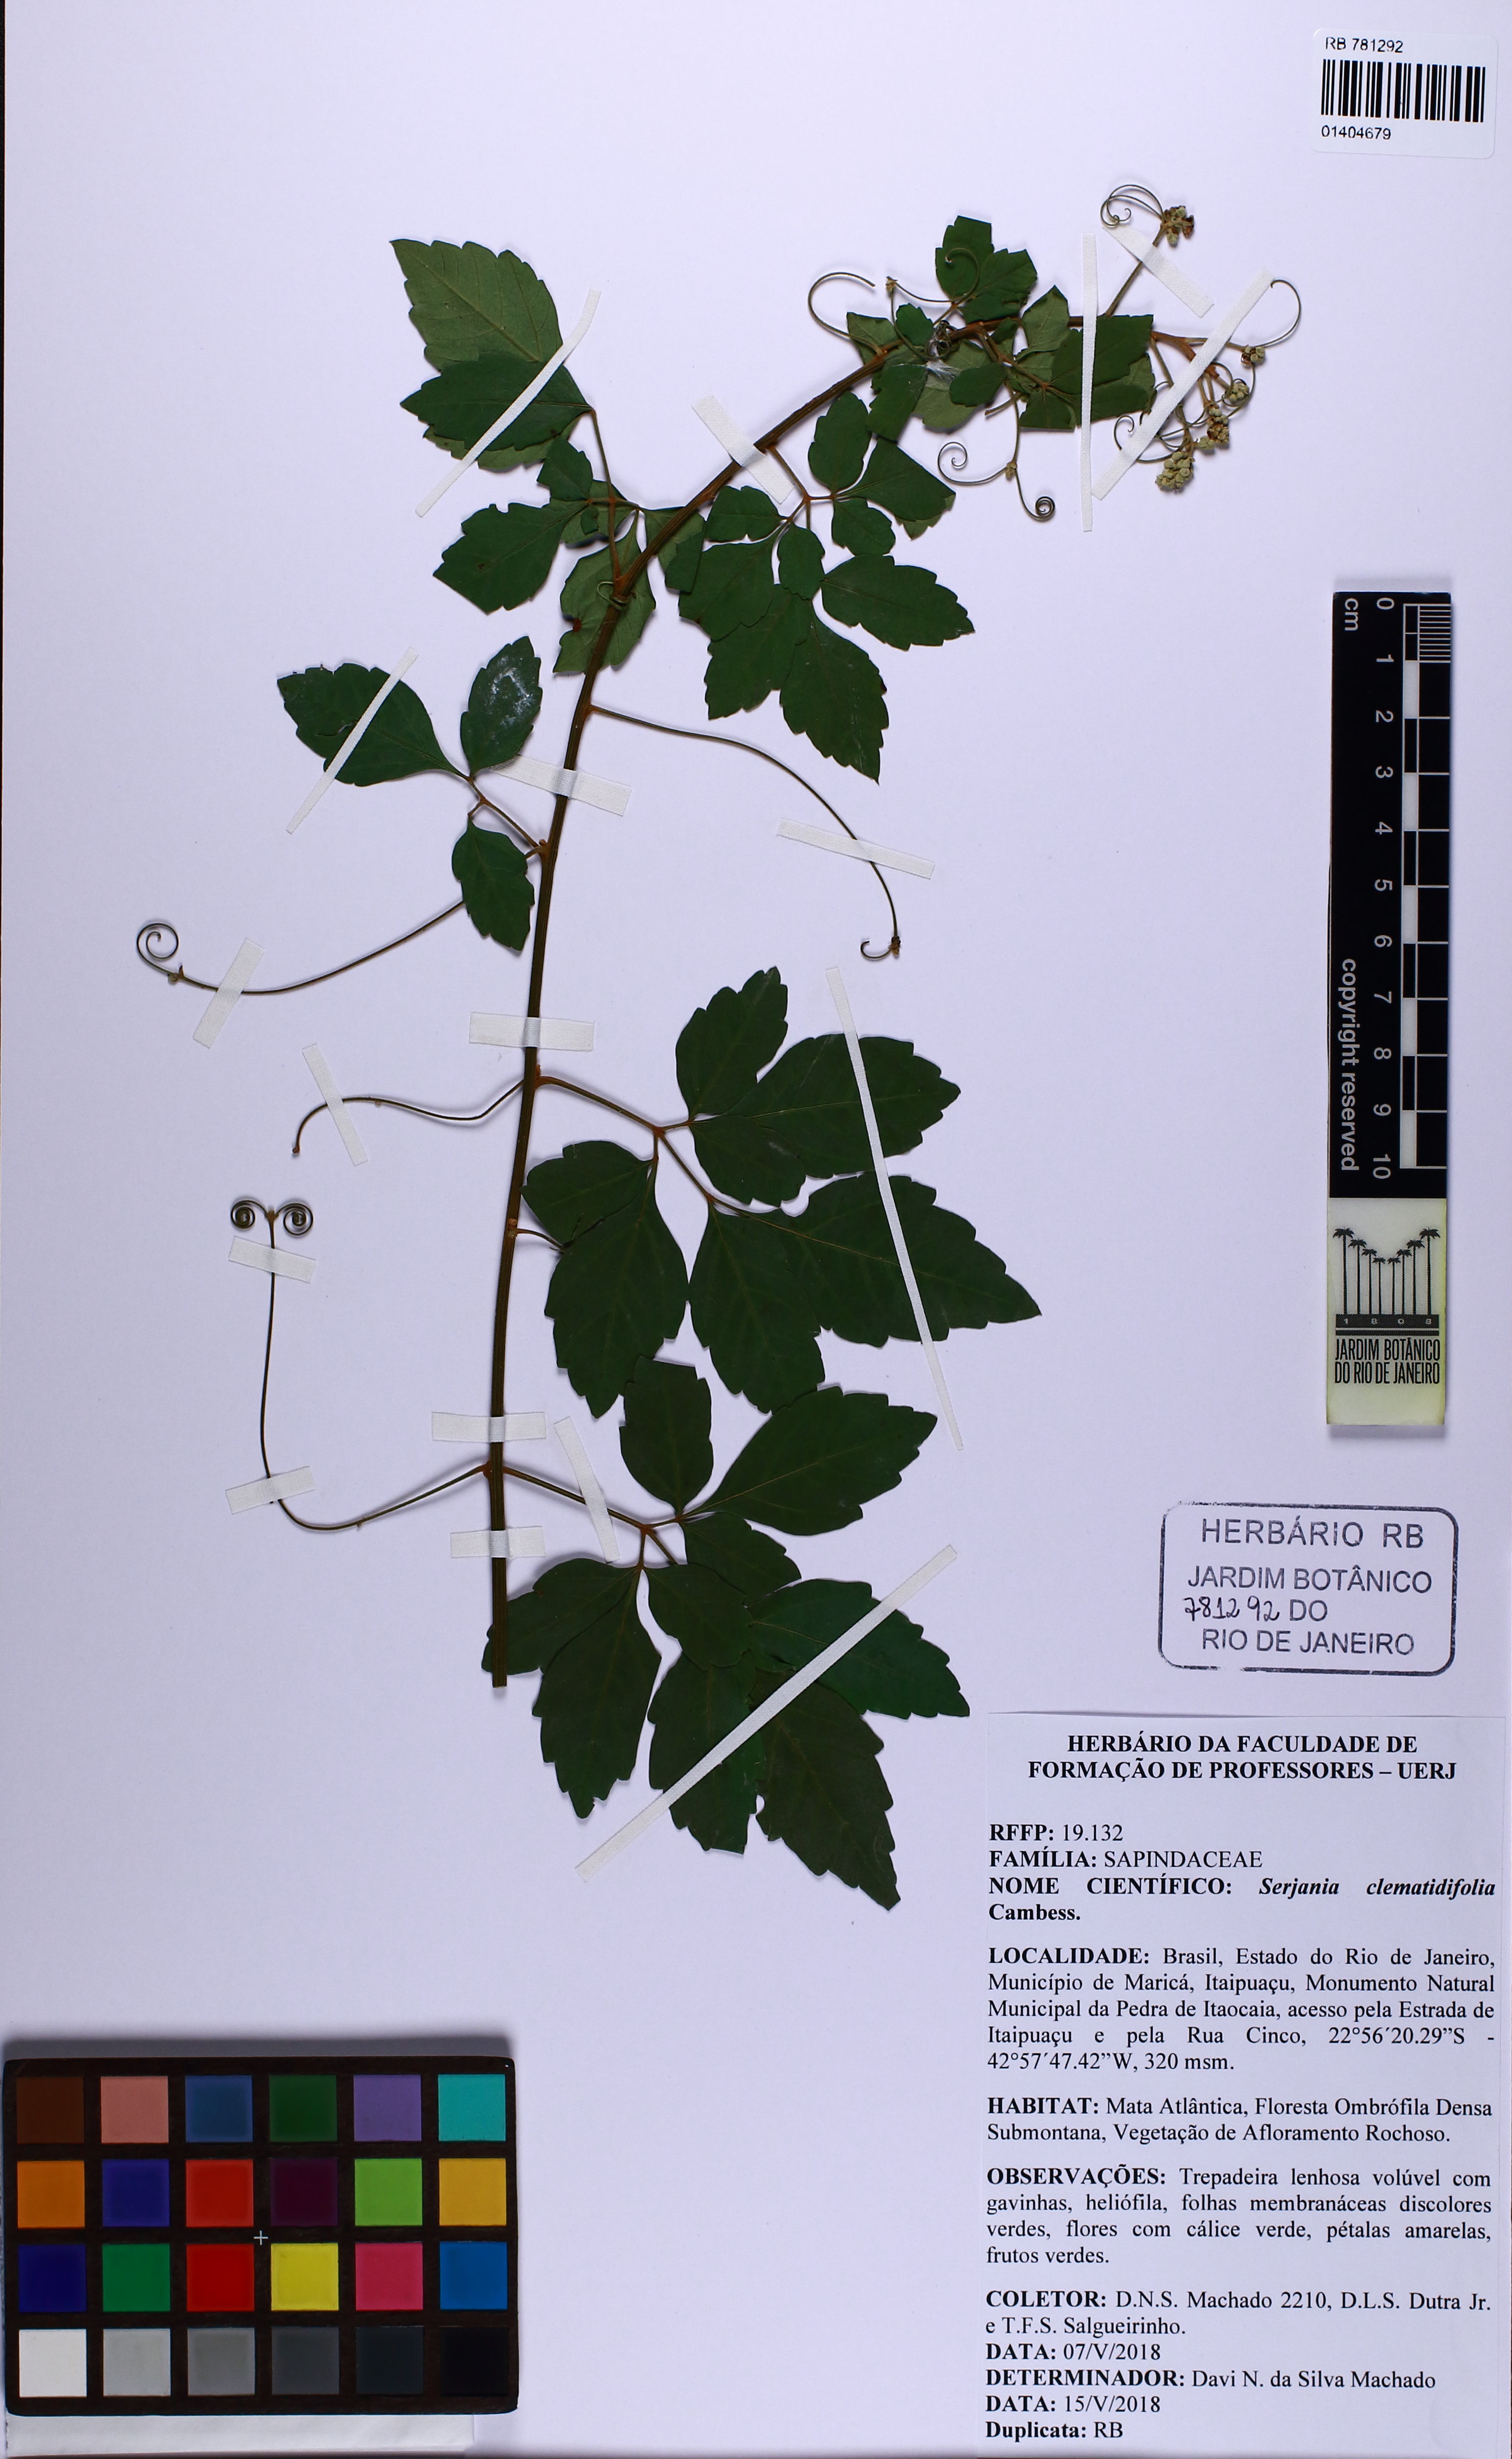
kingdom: Plantae
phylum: Tracheophyta
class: Magnoliopsida
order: Sapindales
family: Sapindaceae
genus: Serjania
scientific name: Serjania clematidifolia
